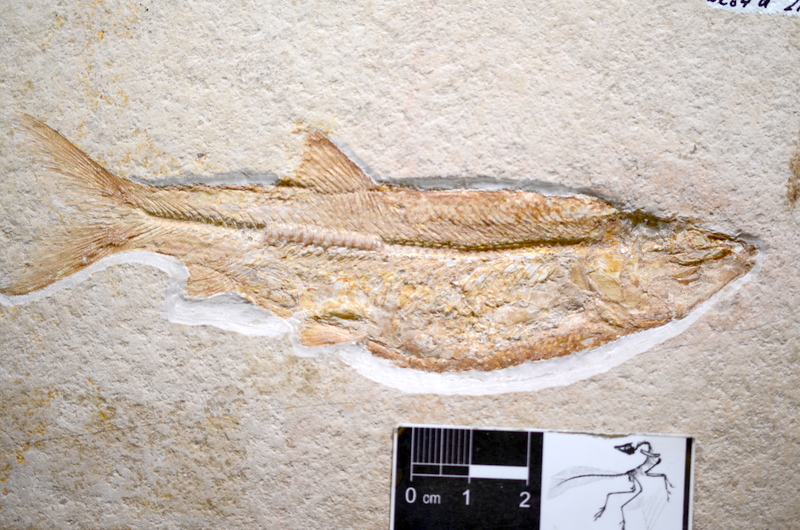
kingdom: Animalia
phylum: Chordata
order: Elopiformes
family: Anaethalionidae
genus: Anaethalion
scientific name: Anaethalion angustus
